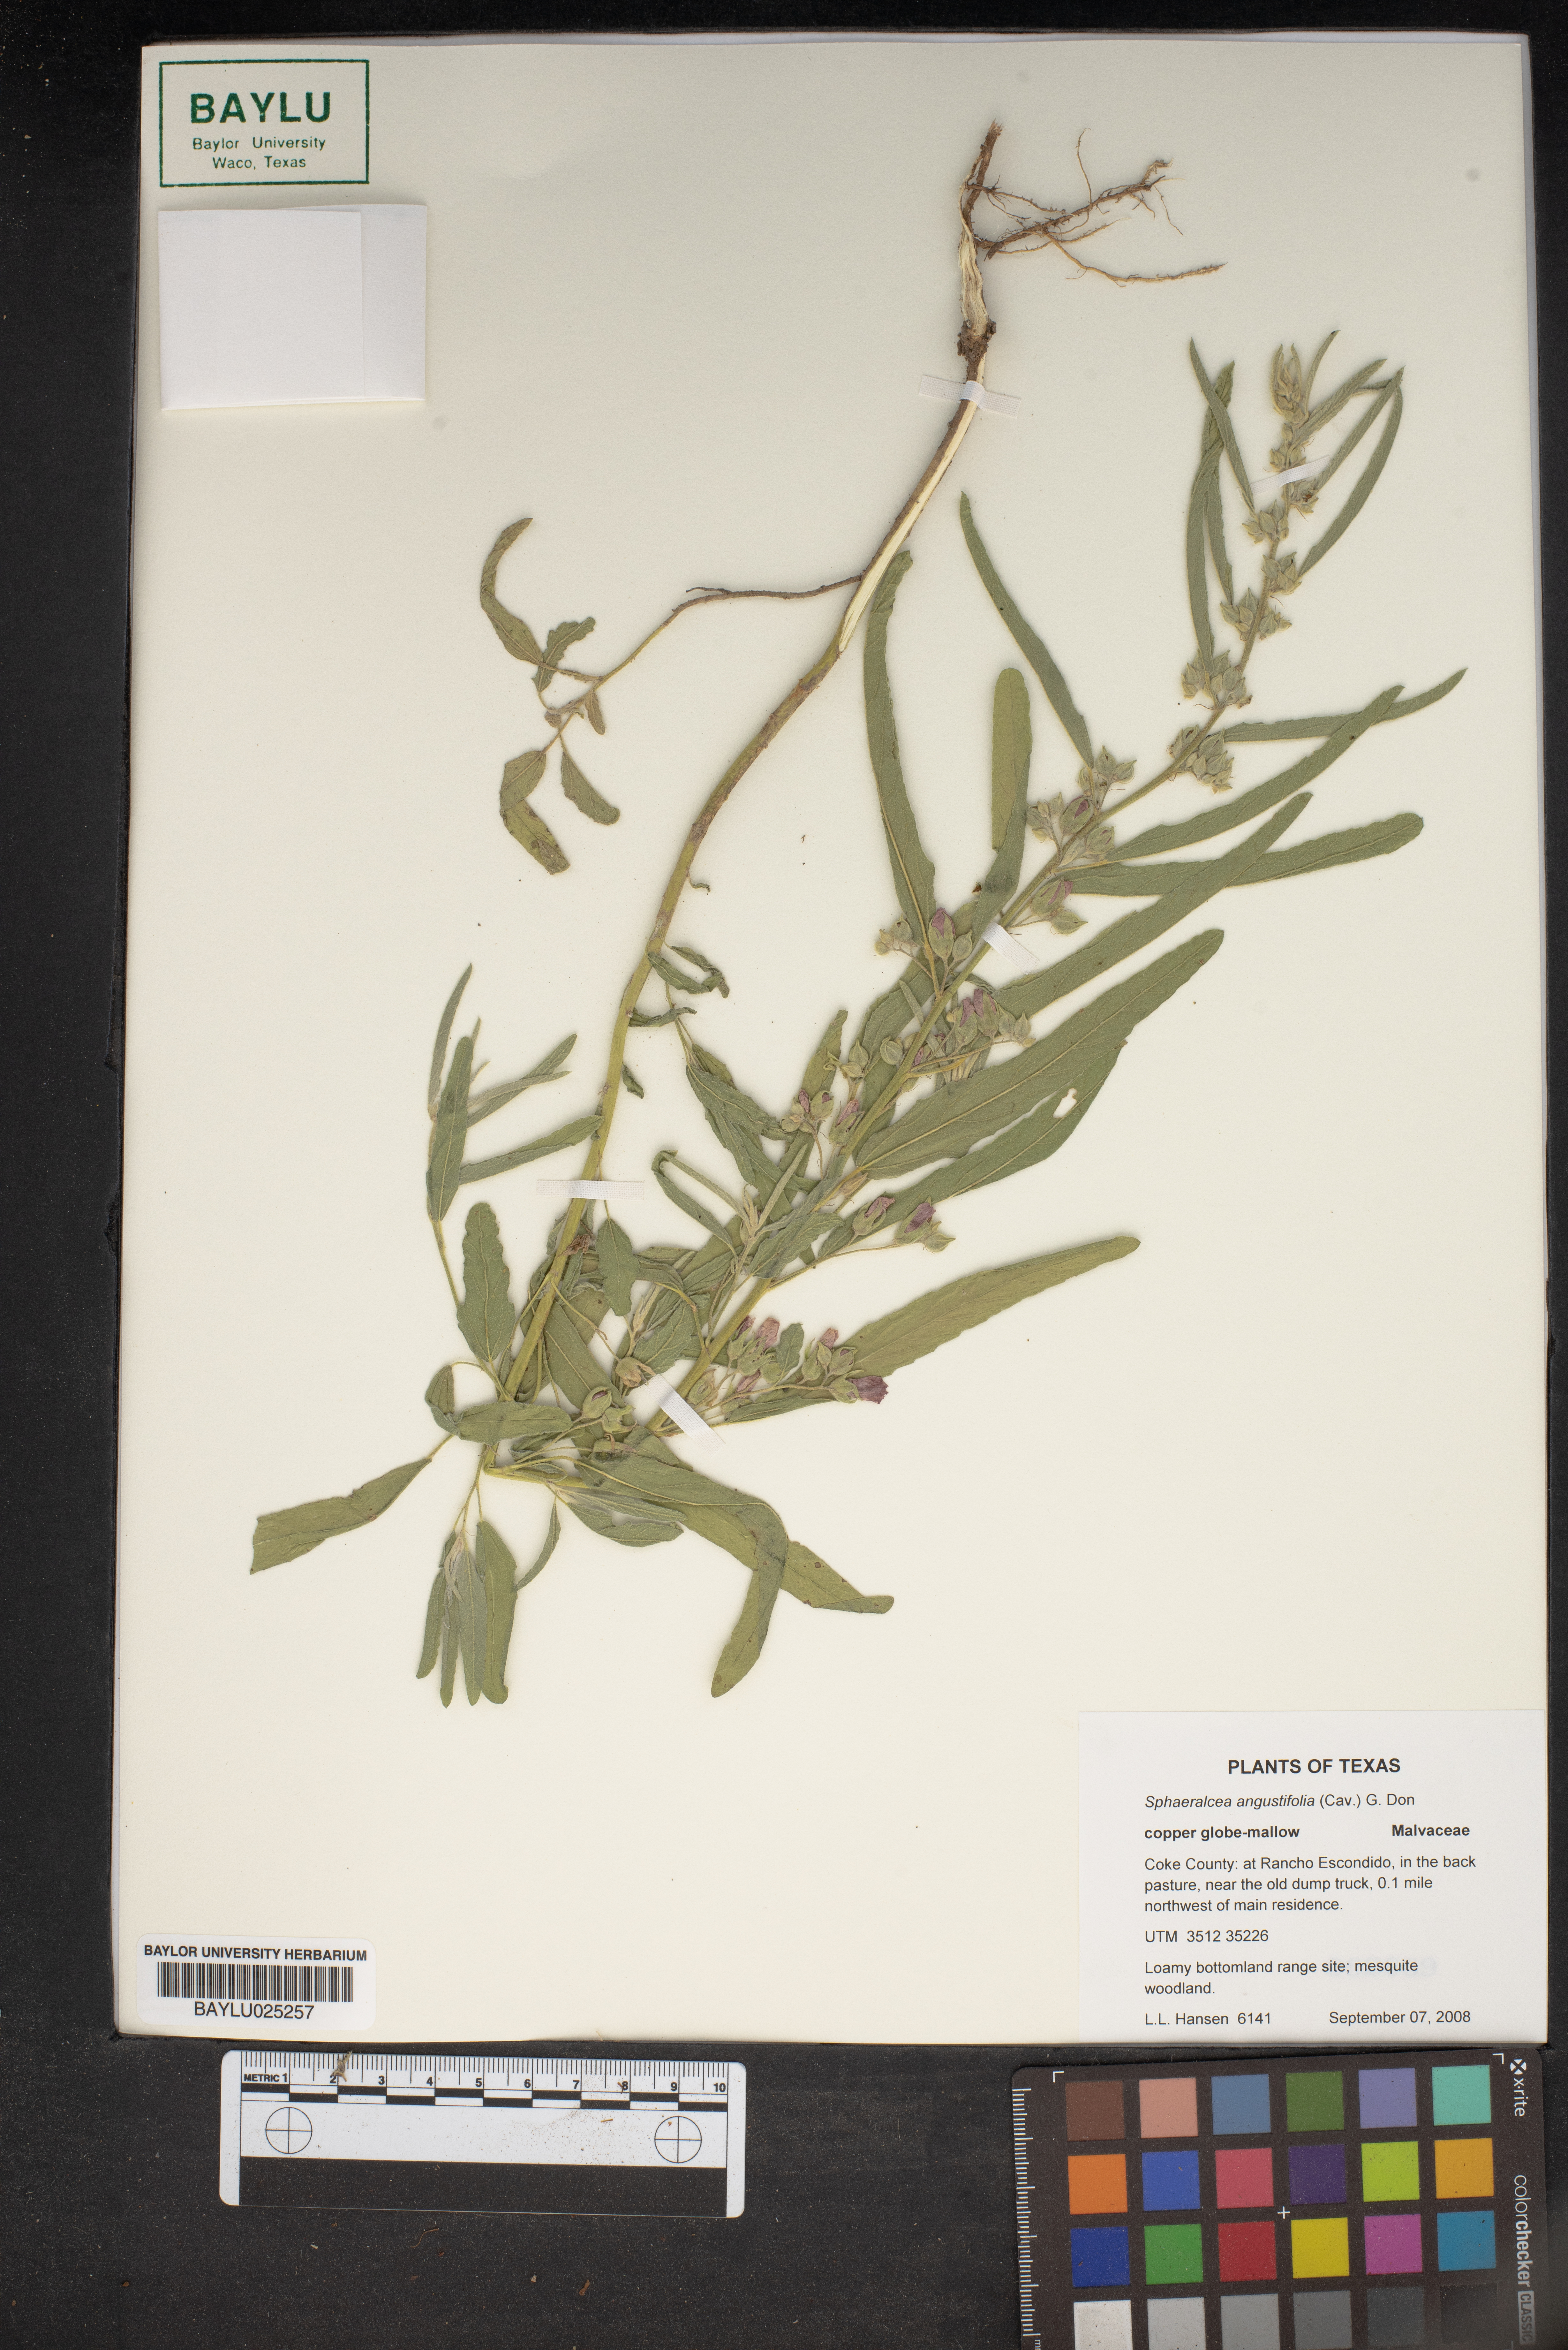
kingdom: Plantae
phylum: Tracheophyta
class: Magnoliopsida
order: Malvales
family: Malvaceae
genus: Sphaeralcea
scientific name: Sphaeralcea angustifolia
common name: Copper globe-mallow
